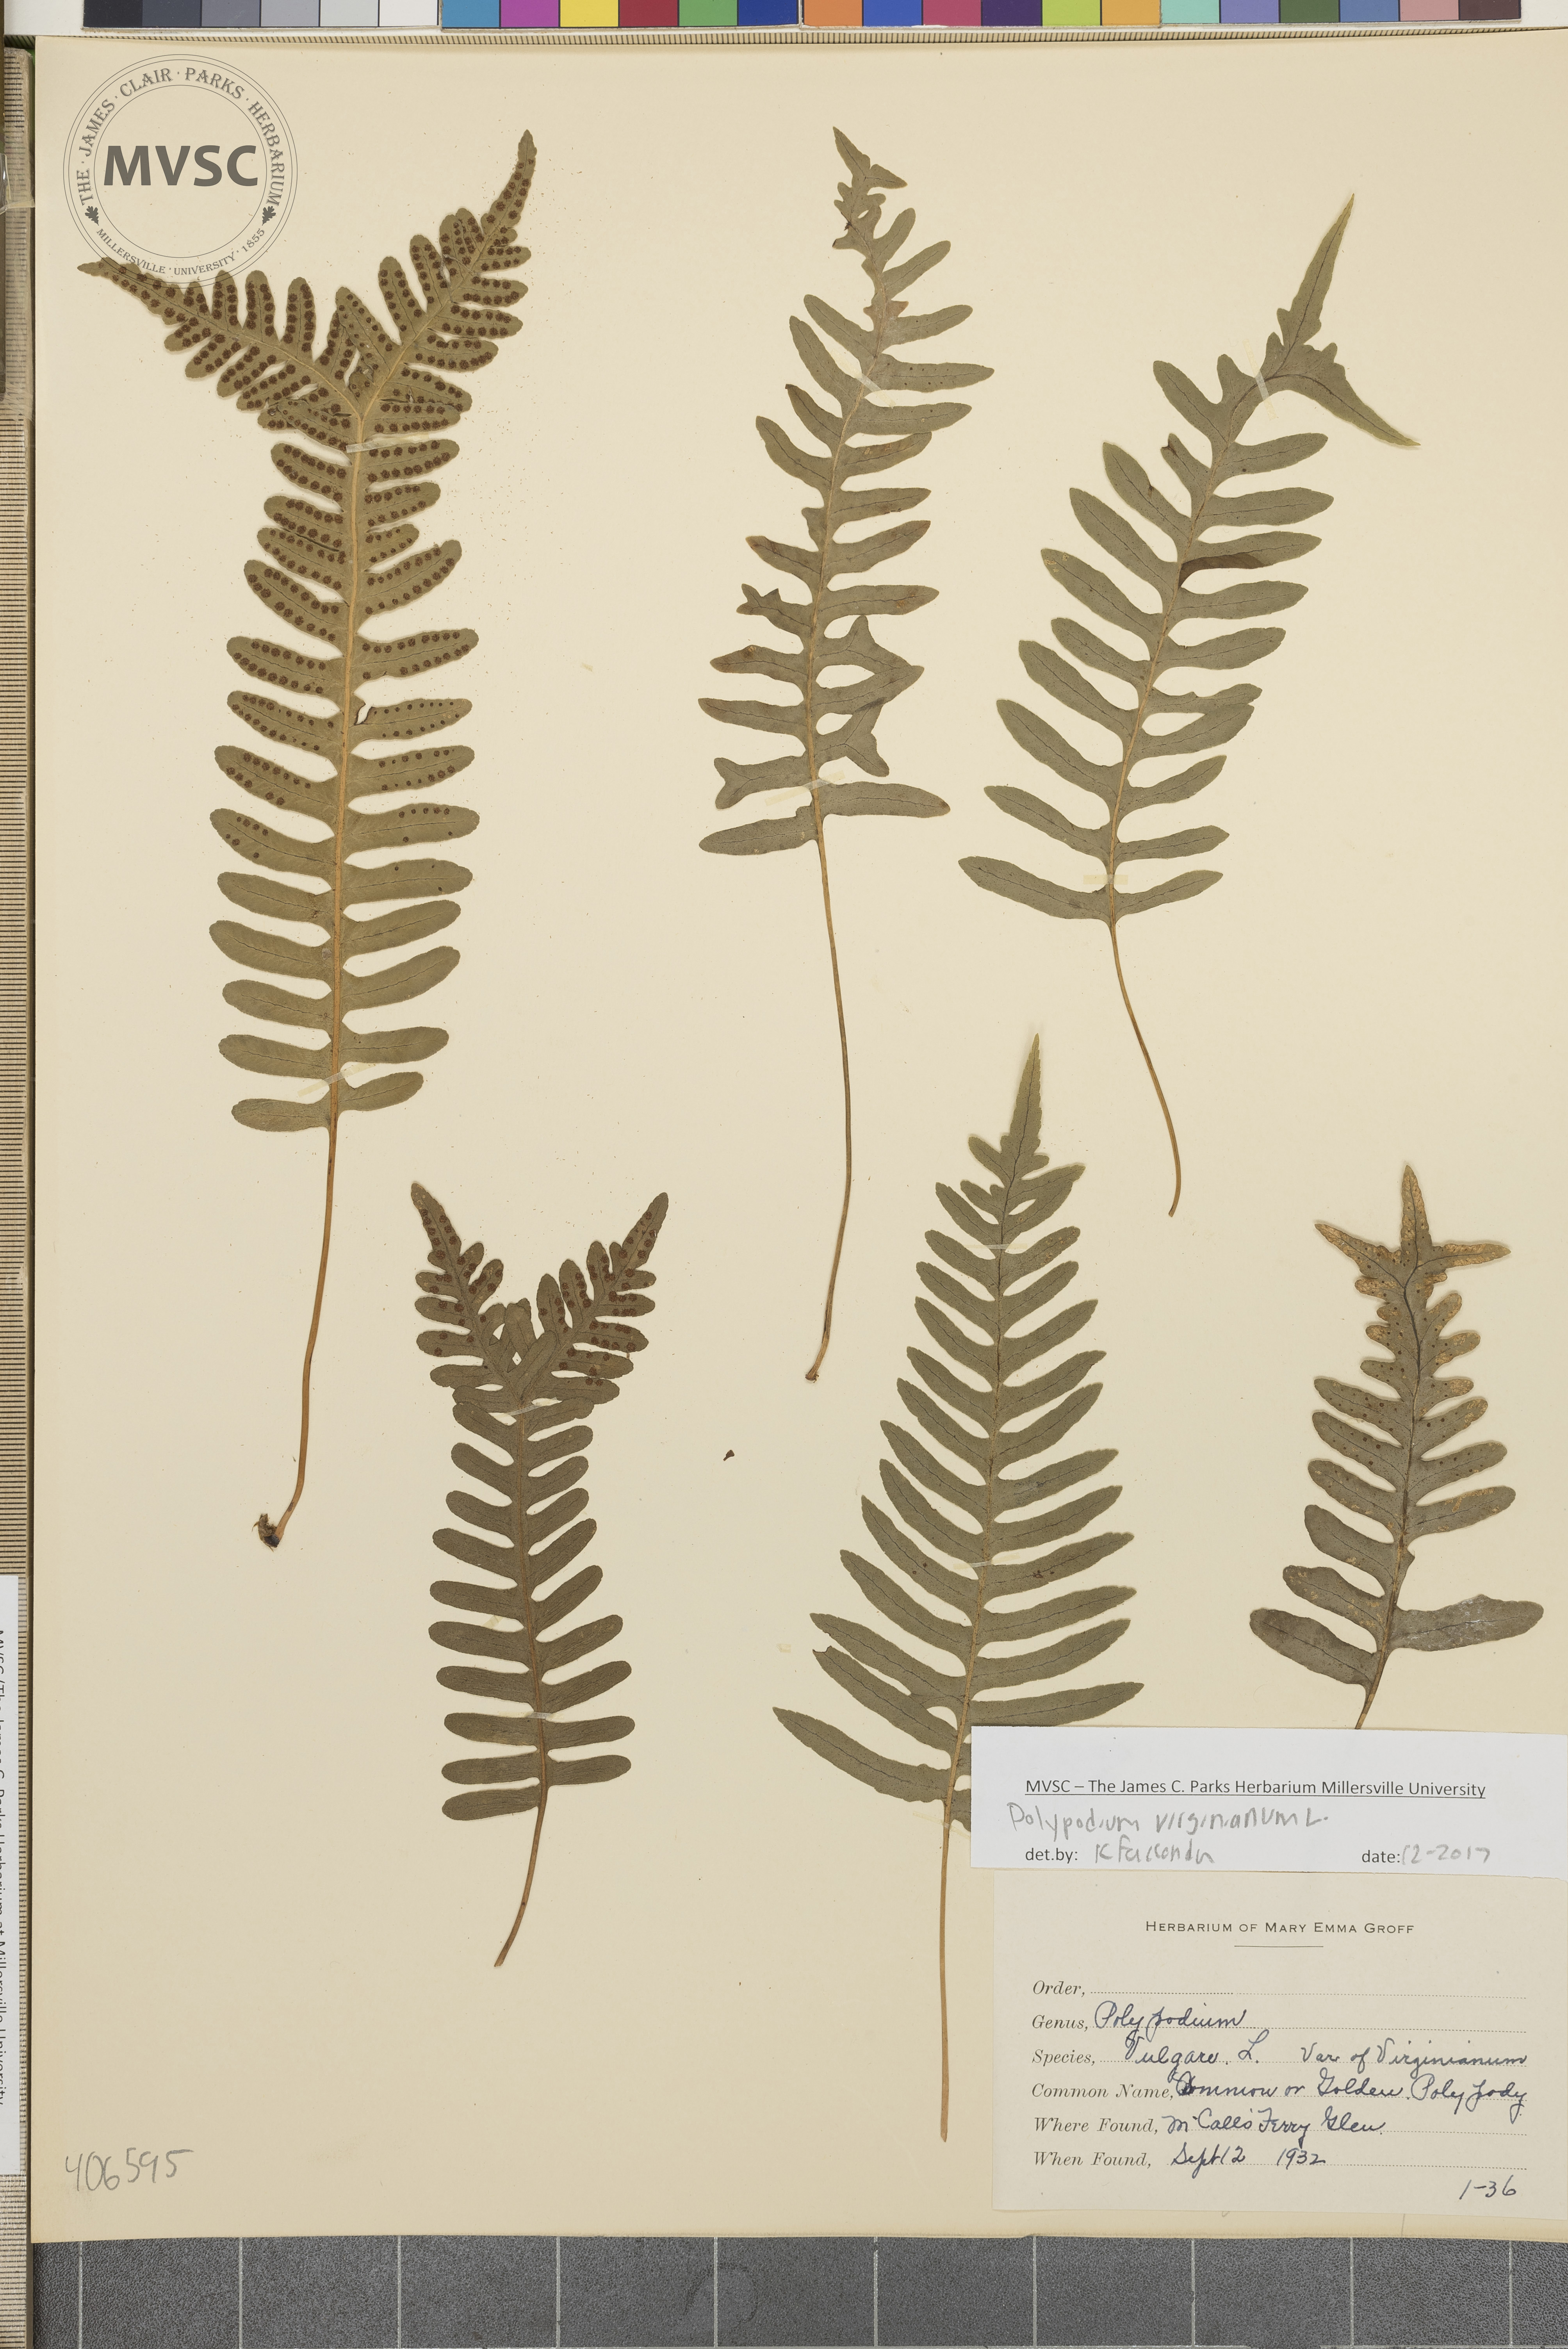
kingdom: Plantae
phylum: Tracheophyta
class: Polypodiopsida
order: Polypodiales
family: Polypodiaceae
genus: Polypodium
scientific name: Polypodium virginianum
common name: American wall fern
